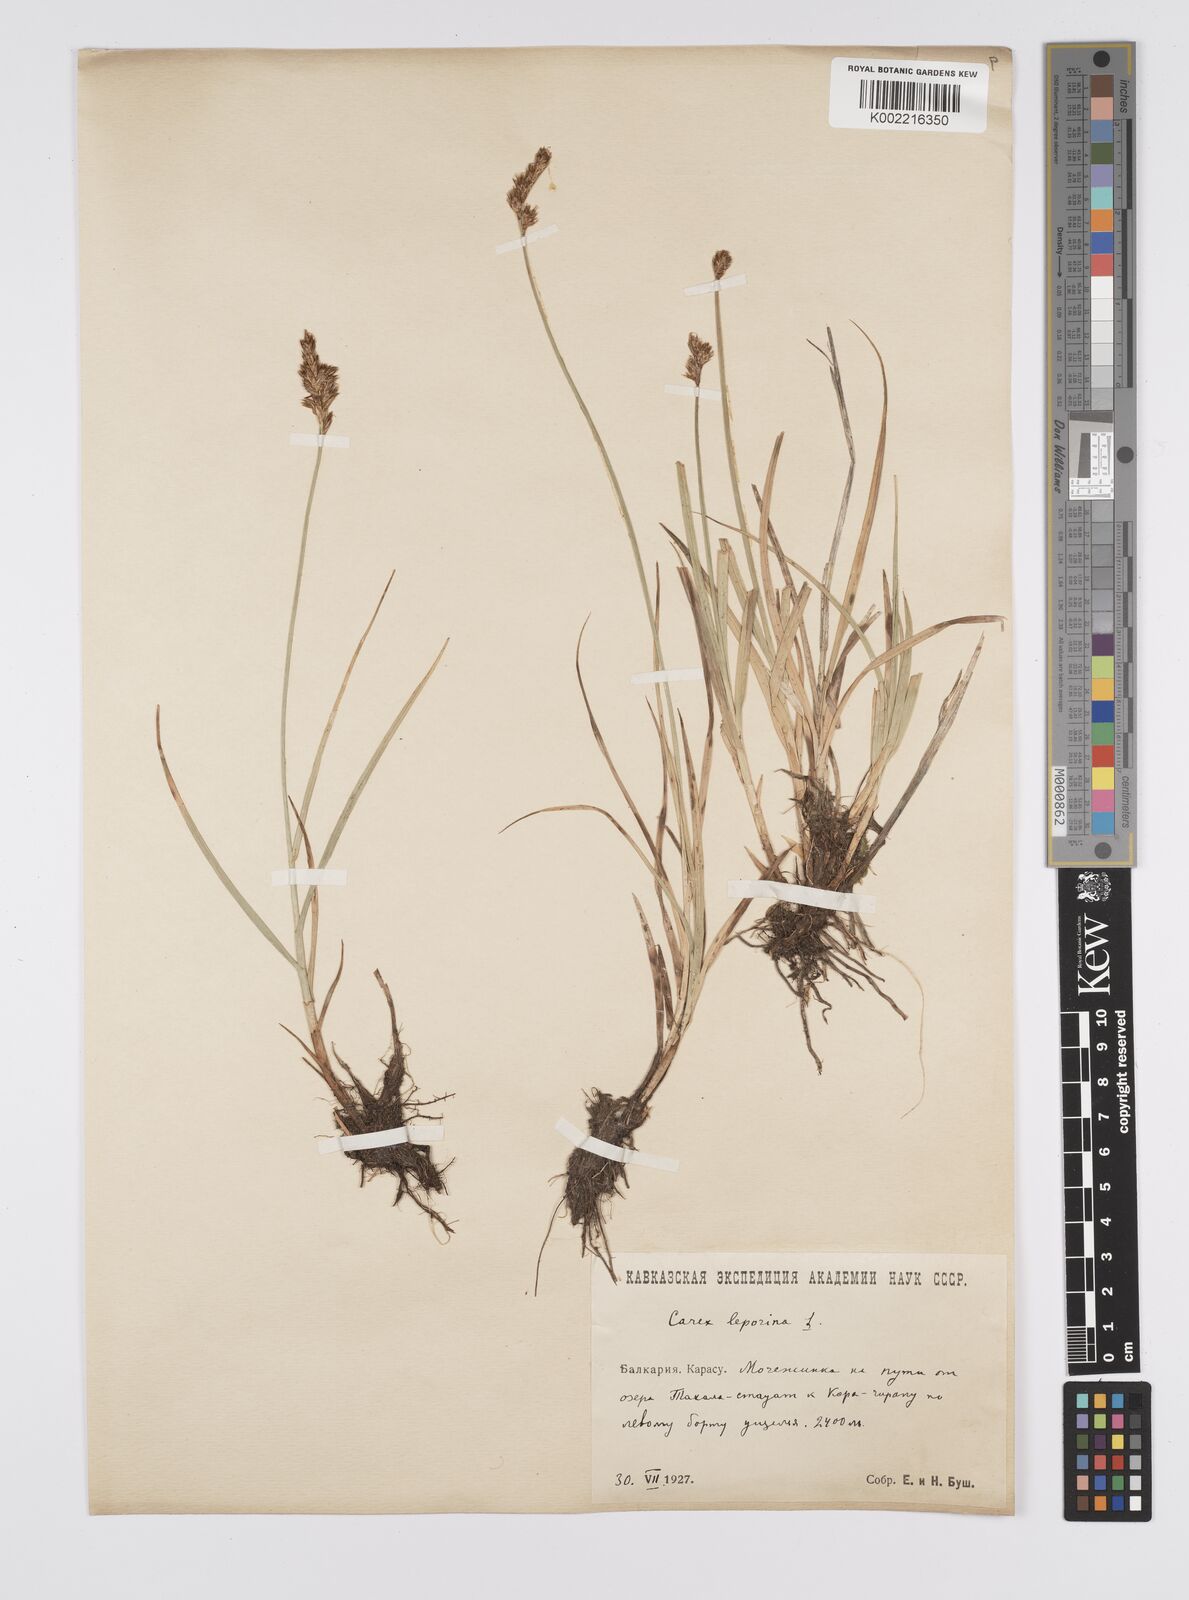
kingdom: Plantae
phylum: Tracheophyta
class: Liliopsida
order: Poales
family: Cyperaceae
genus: Carex
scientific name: Carex leporina
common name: Oval sedge
